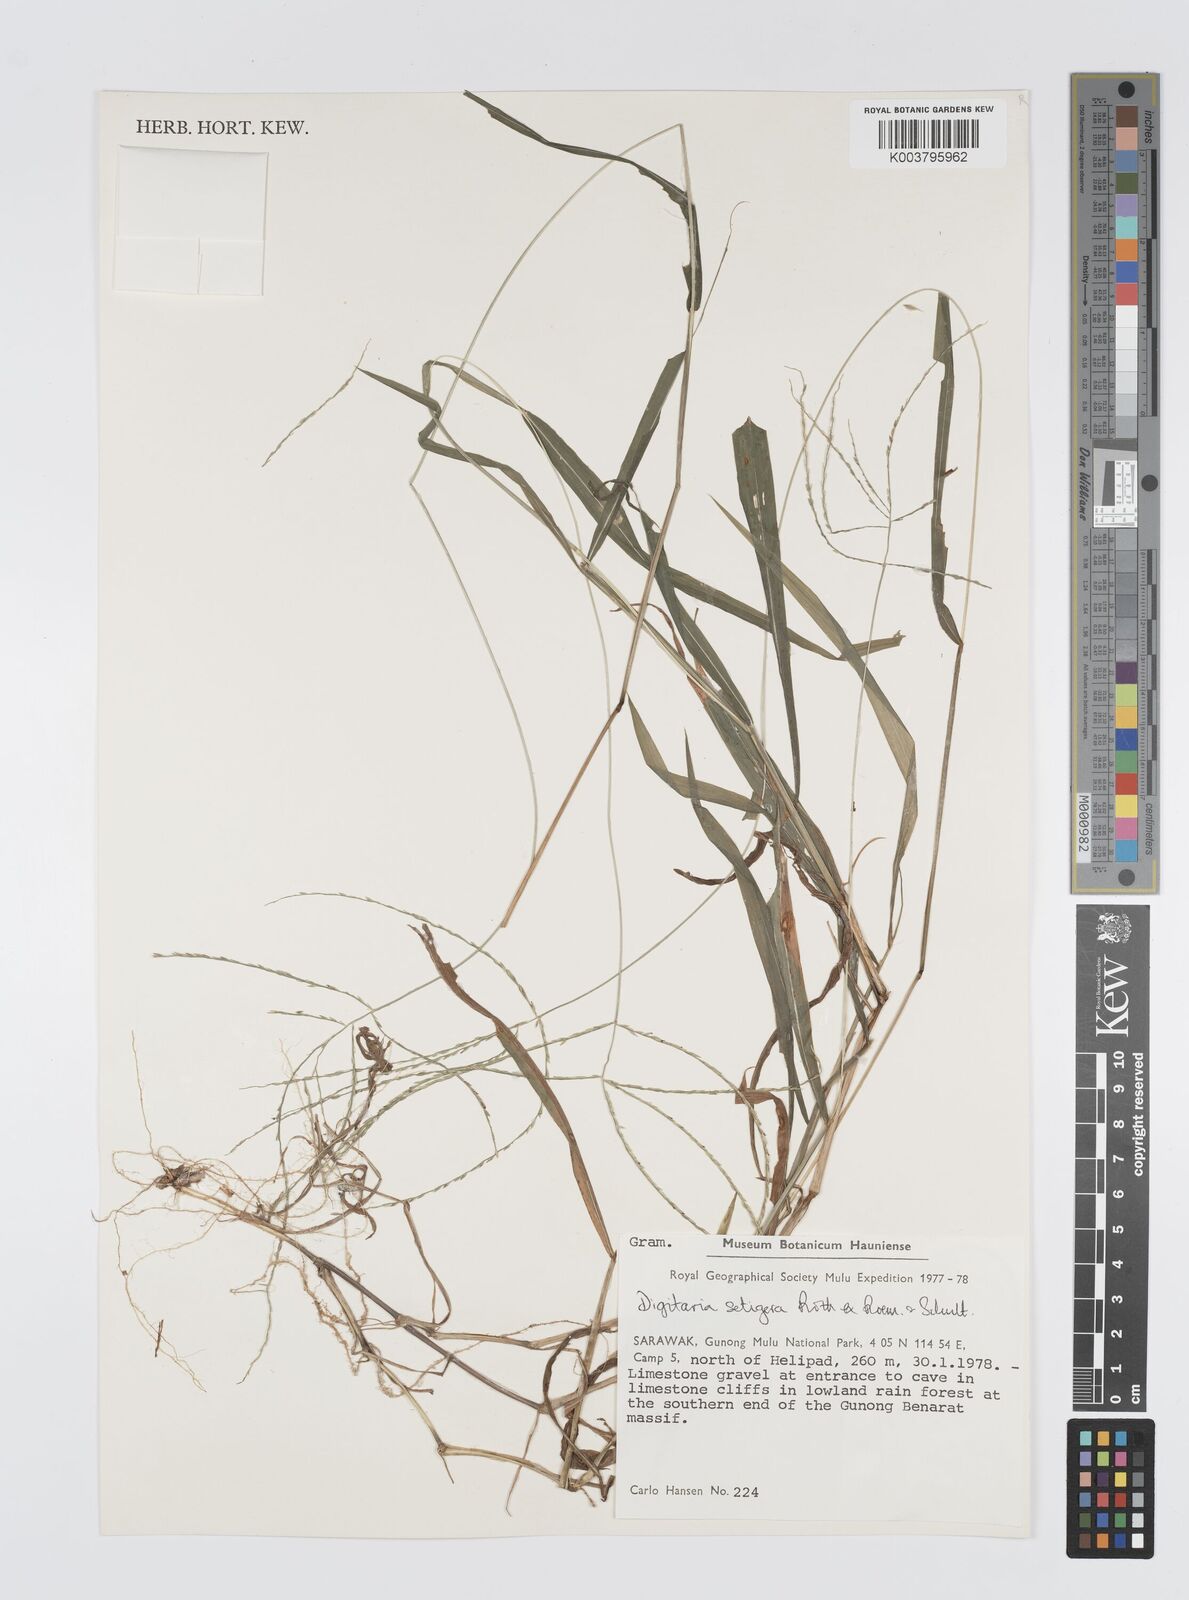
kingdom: Plantae
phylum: Tracheophyta
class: Liliopsida
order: Poales
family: Poaceae
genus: Digitaria
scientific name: Digitaria setigera
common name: East indian crabgrass
